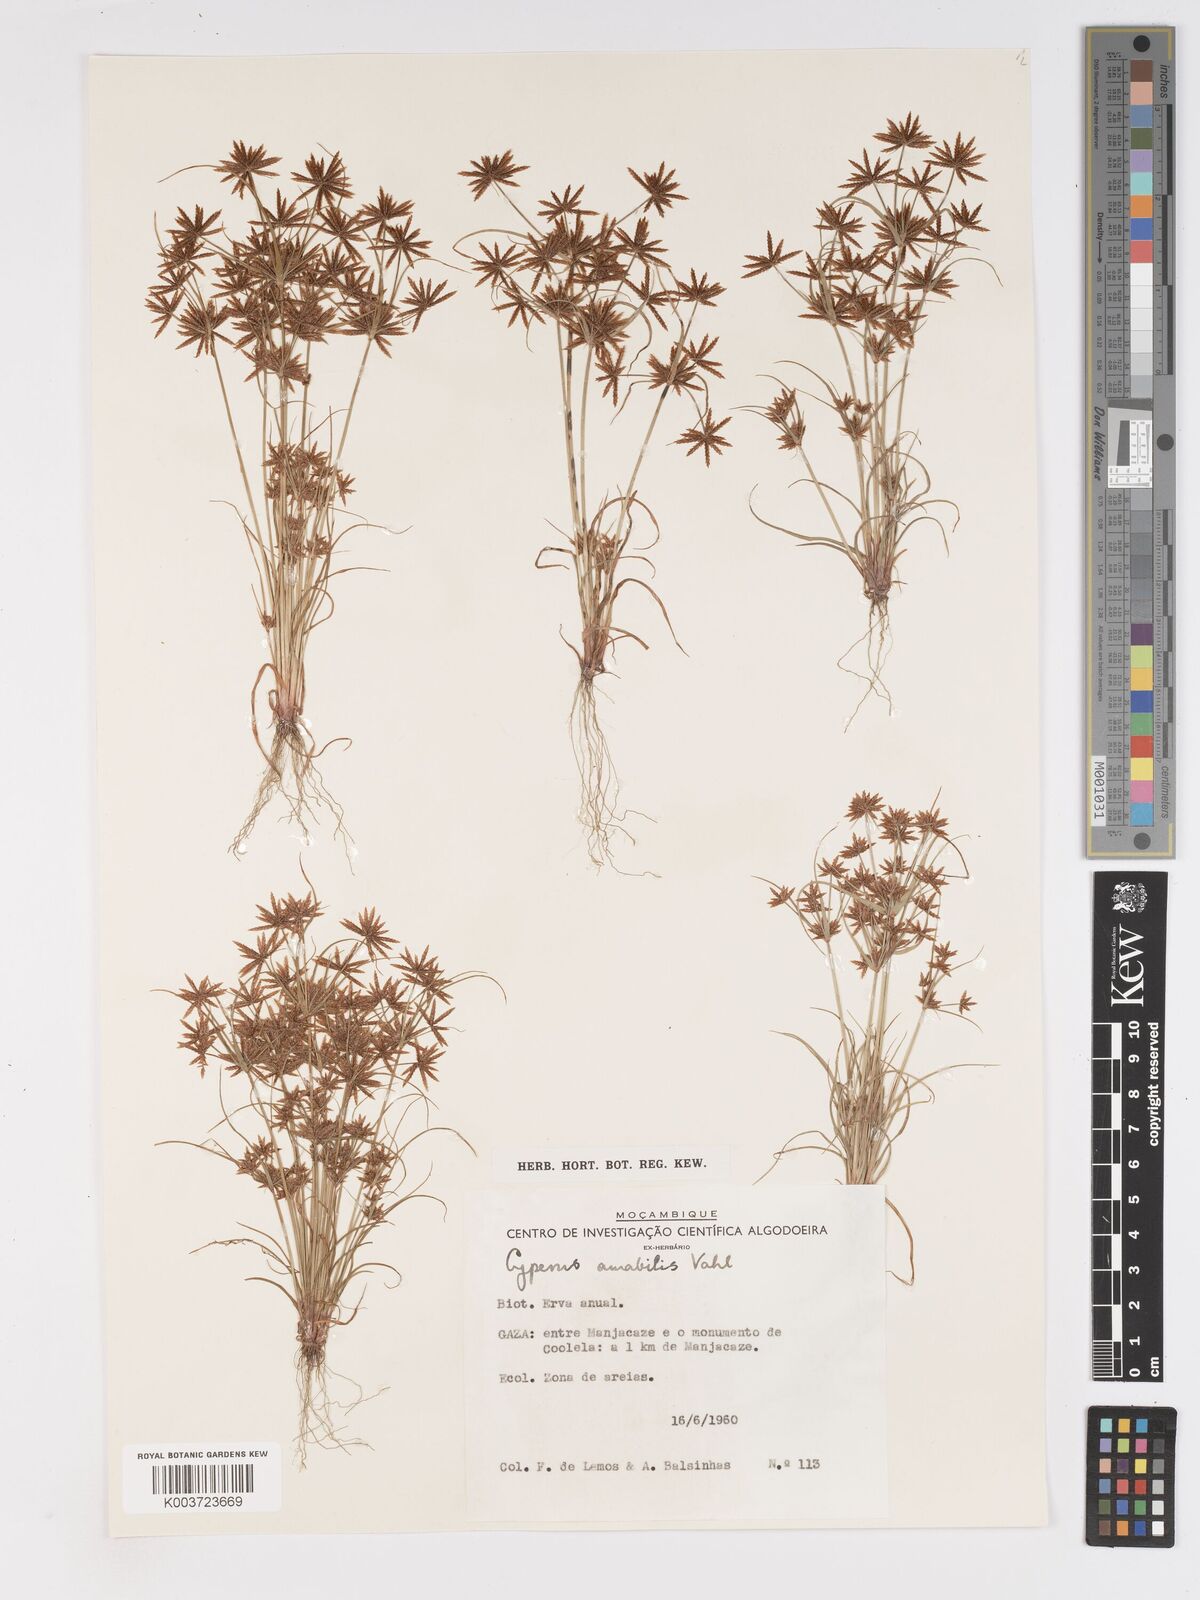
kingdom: Plantae
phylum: Tracheophyta
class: Liliopsida
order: Poales
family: Cyperaceae
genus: Cyperus
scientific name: Cyperus amabilis
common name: Foothill flat sedge
